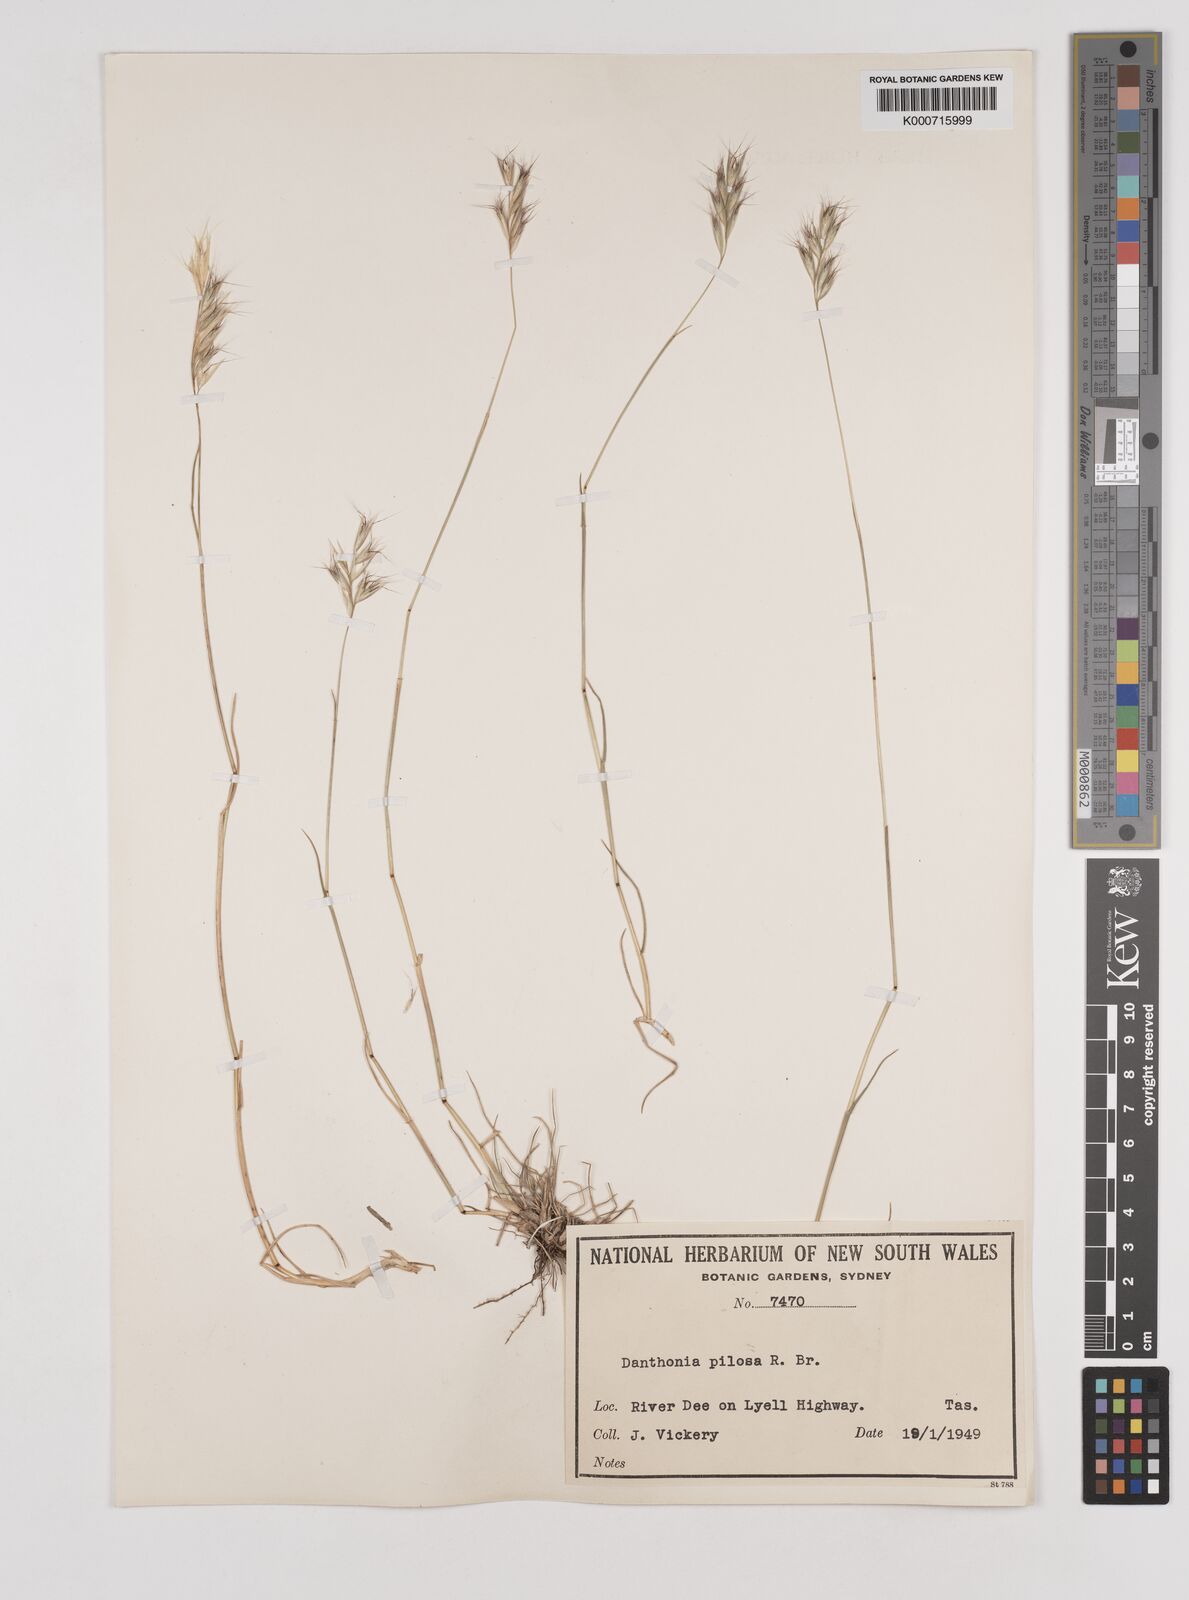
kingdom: Plantae
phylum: Tracheophyta
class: Liliopsida
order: Poales
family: Poaceae
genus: Rytidosperma
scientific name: Rytidosperma pilosum
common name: Hairy wallaby grass
